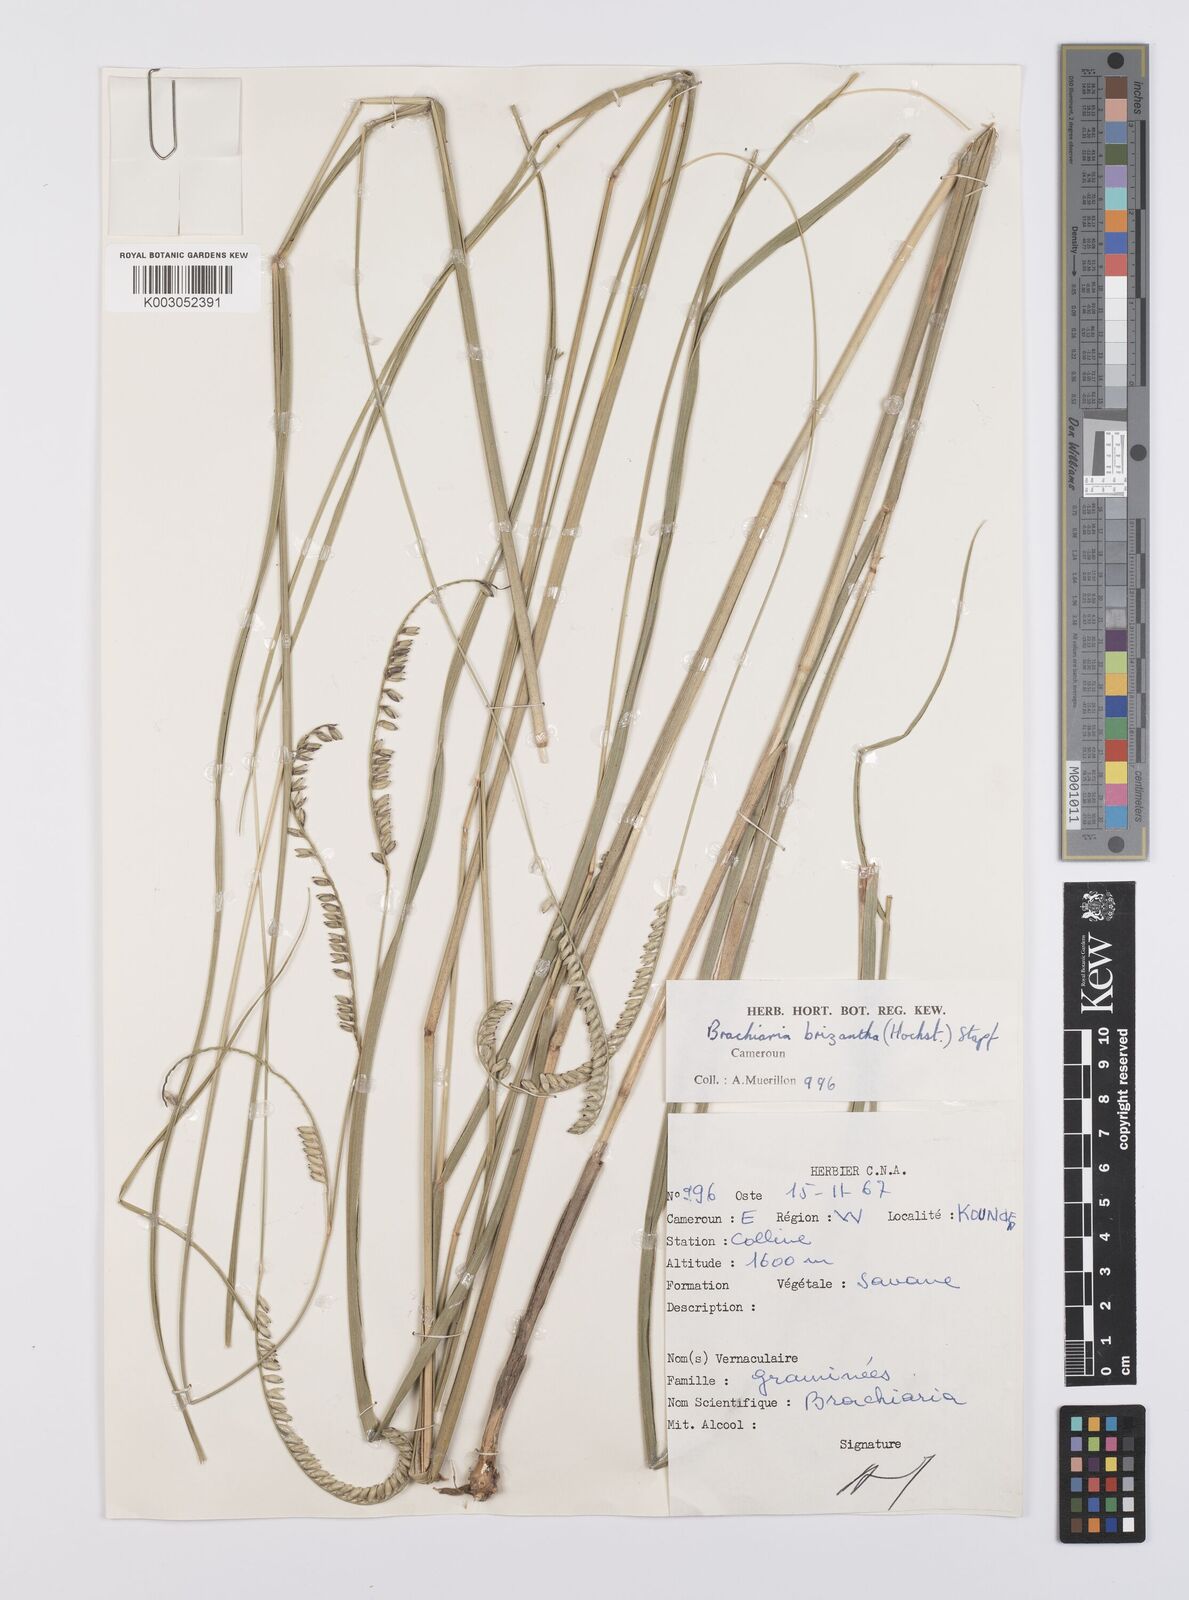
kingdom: Plantae
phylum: Tracheophyta
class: Liliopsida
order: Poales
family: Poaceae
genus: Urochloa
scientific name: Urochloa brizantha
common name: Palisade signalgrass
